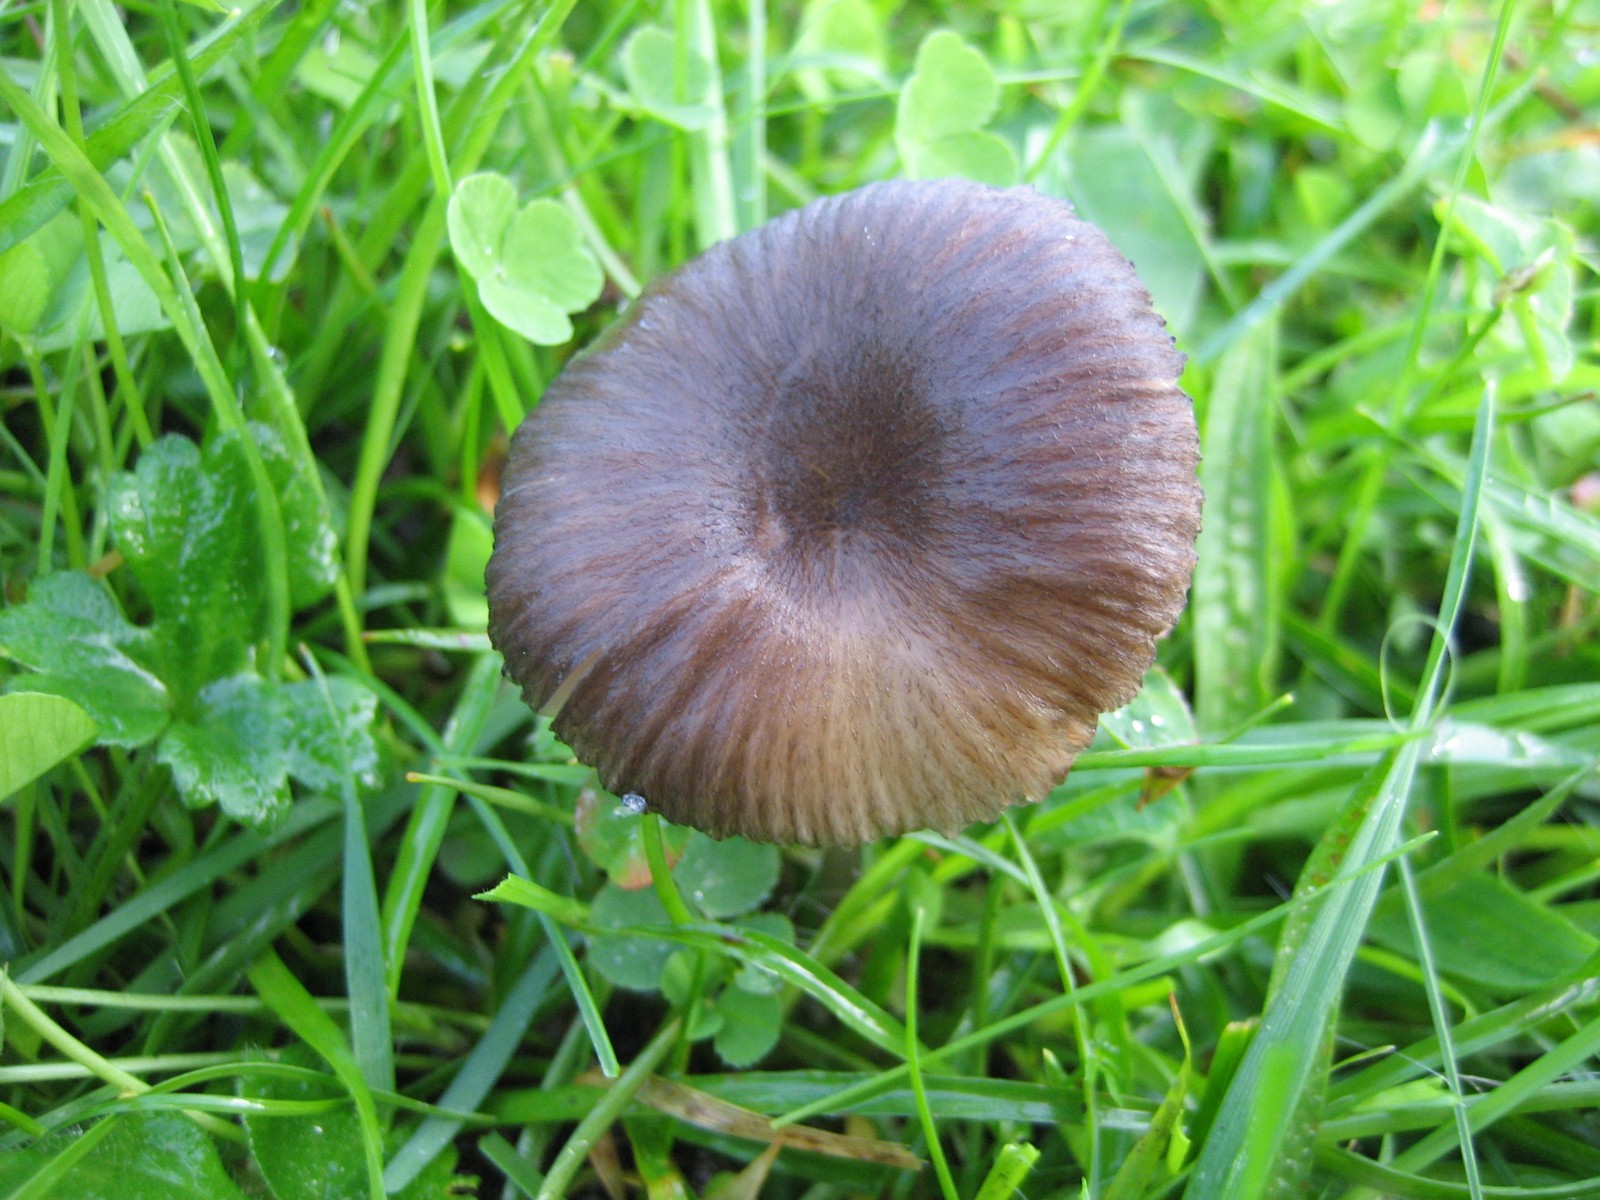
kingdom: Fungi
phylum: Basidiomycota
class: Agaricomycetes
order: Agaricales
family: Entolomataceae
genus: Entoloma
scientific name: Entoloma
